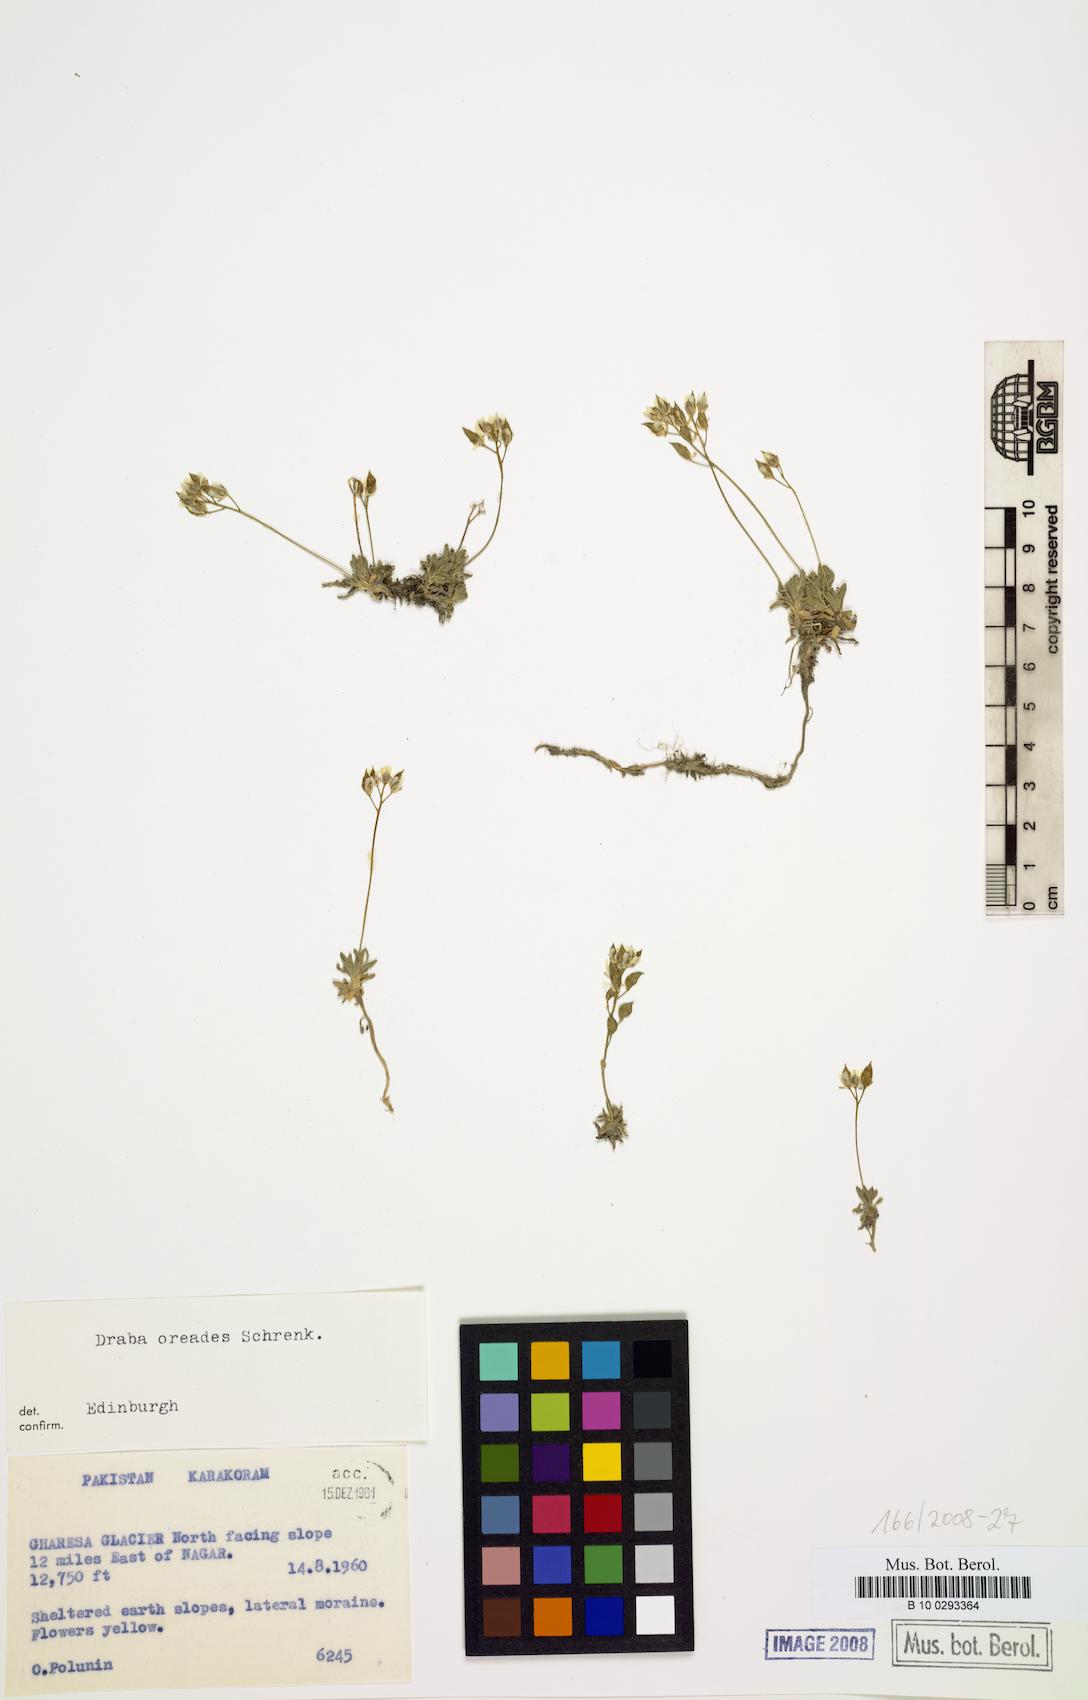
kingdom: Plantae
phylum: Tracheophyta
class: Magnoliopsida
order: Brassicales
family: Brassicaceae
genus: Draba
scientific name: Draba oreades
